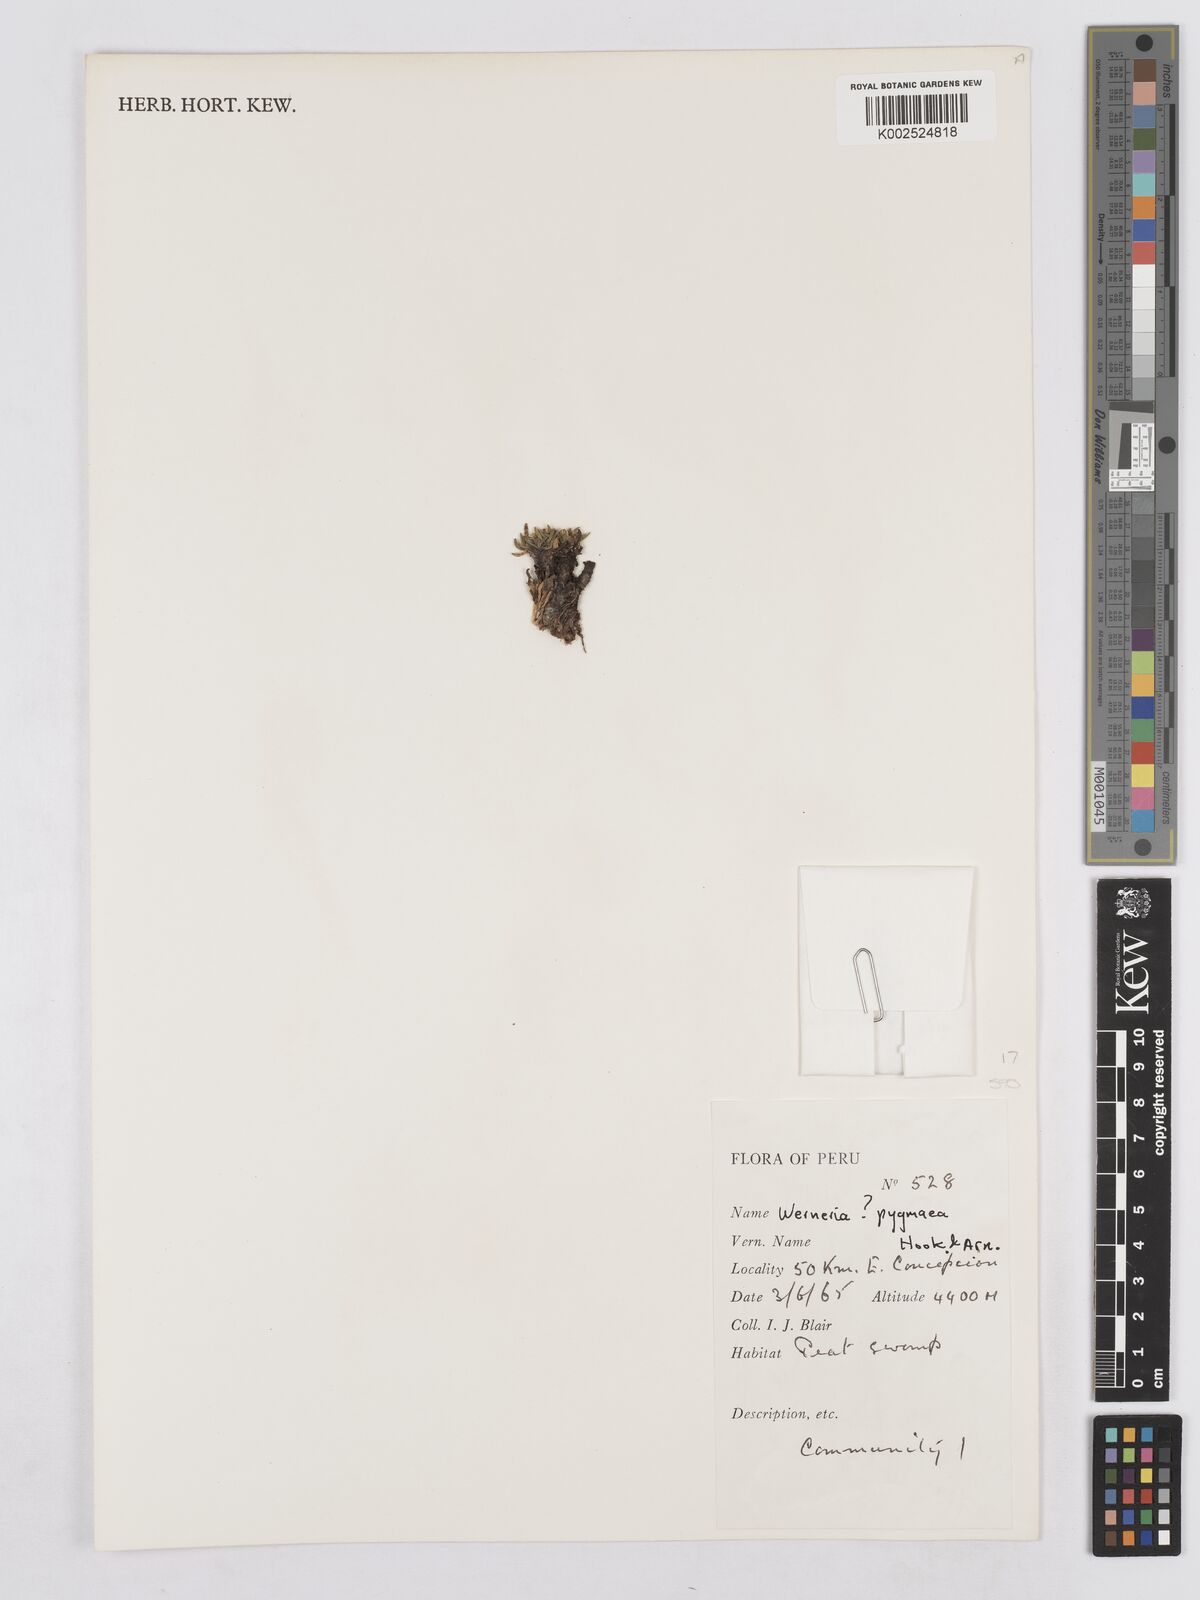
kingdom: Plantae
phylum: Tracheophyta
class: Magnoliopsida
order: Asterales
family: Asteraceae
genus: Rockhausenia
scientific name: Rockhausenia pygmaea
